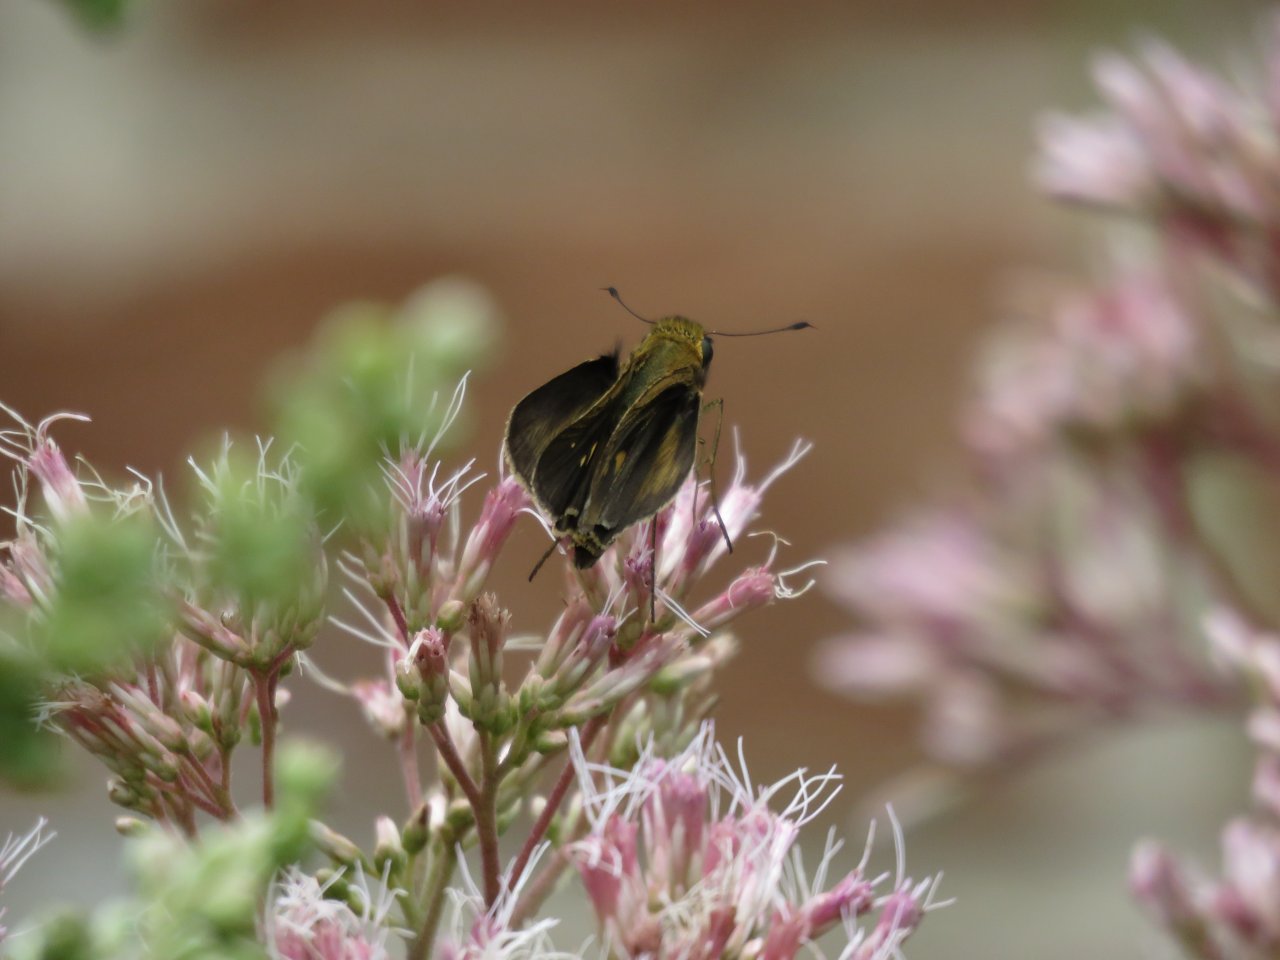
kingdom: Animalia
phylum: Arthropoda
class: Insecta
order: Lepidoptera
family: Hesperiidae
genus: Euphyes
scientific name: Euphyes vestris
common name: Dun Skipper
